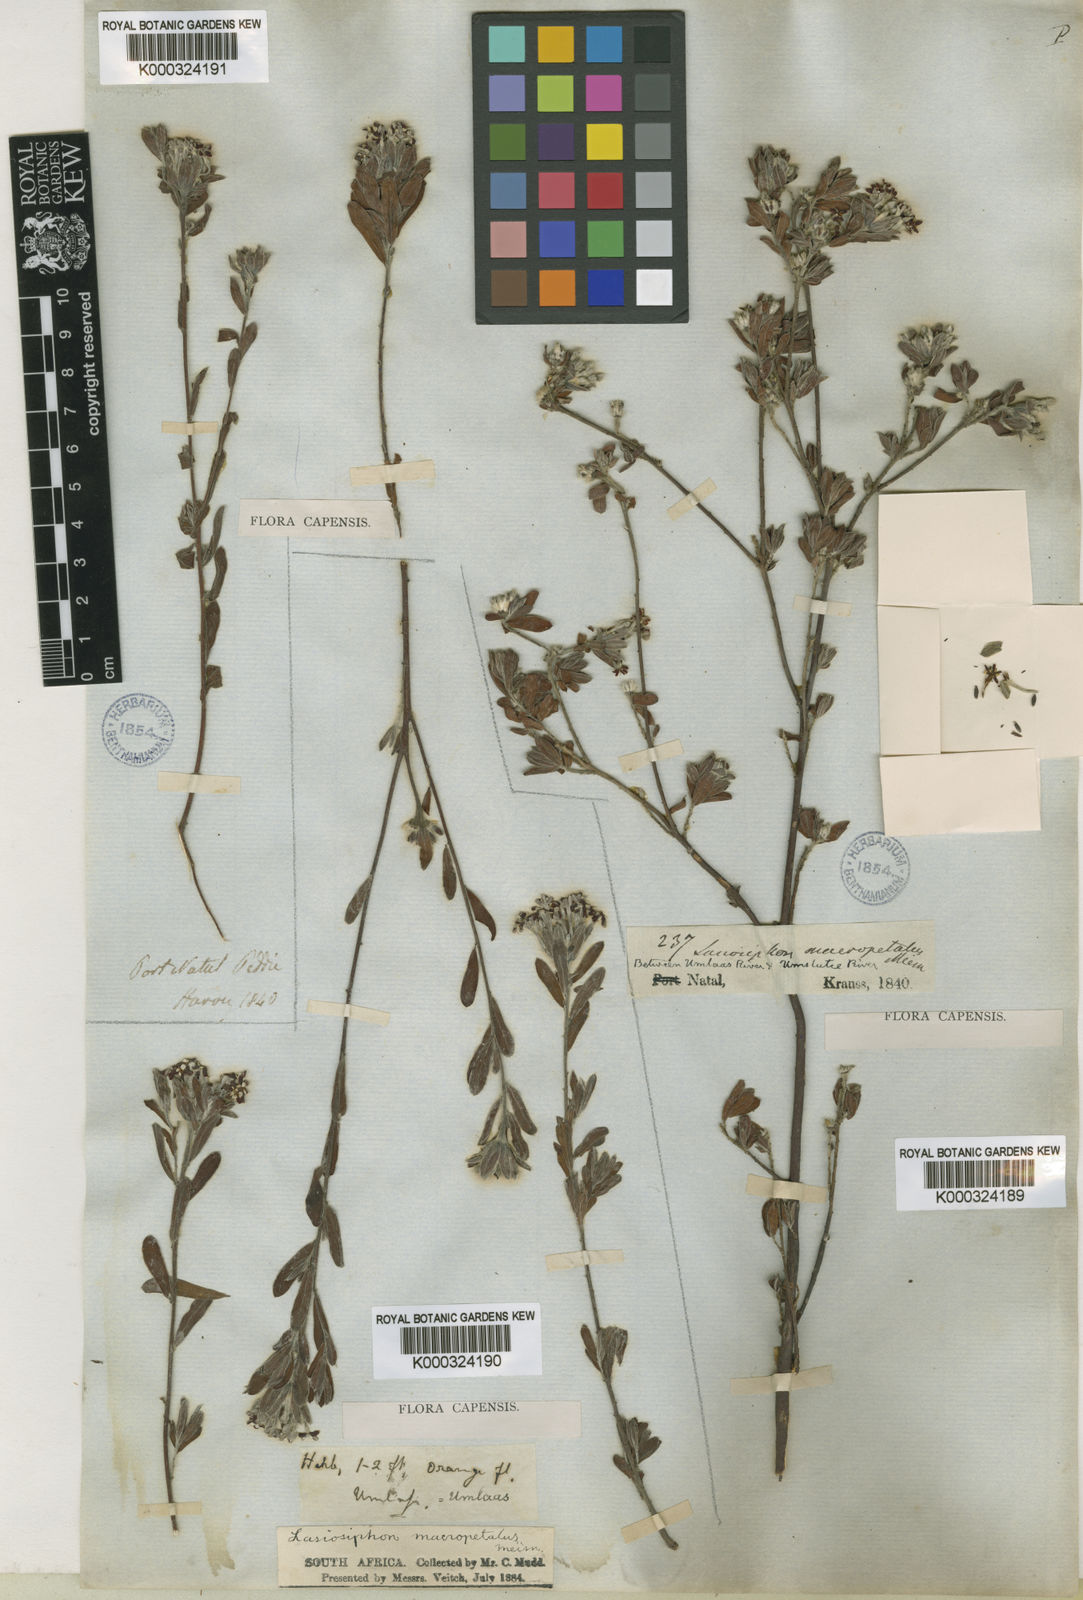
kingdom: Plantae
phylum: Tracheophyta
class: Magnoliopsida
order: Malvales
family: Thymelaeaceae
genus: Gnidia
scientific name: Gnidia macropetala
